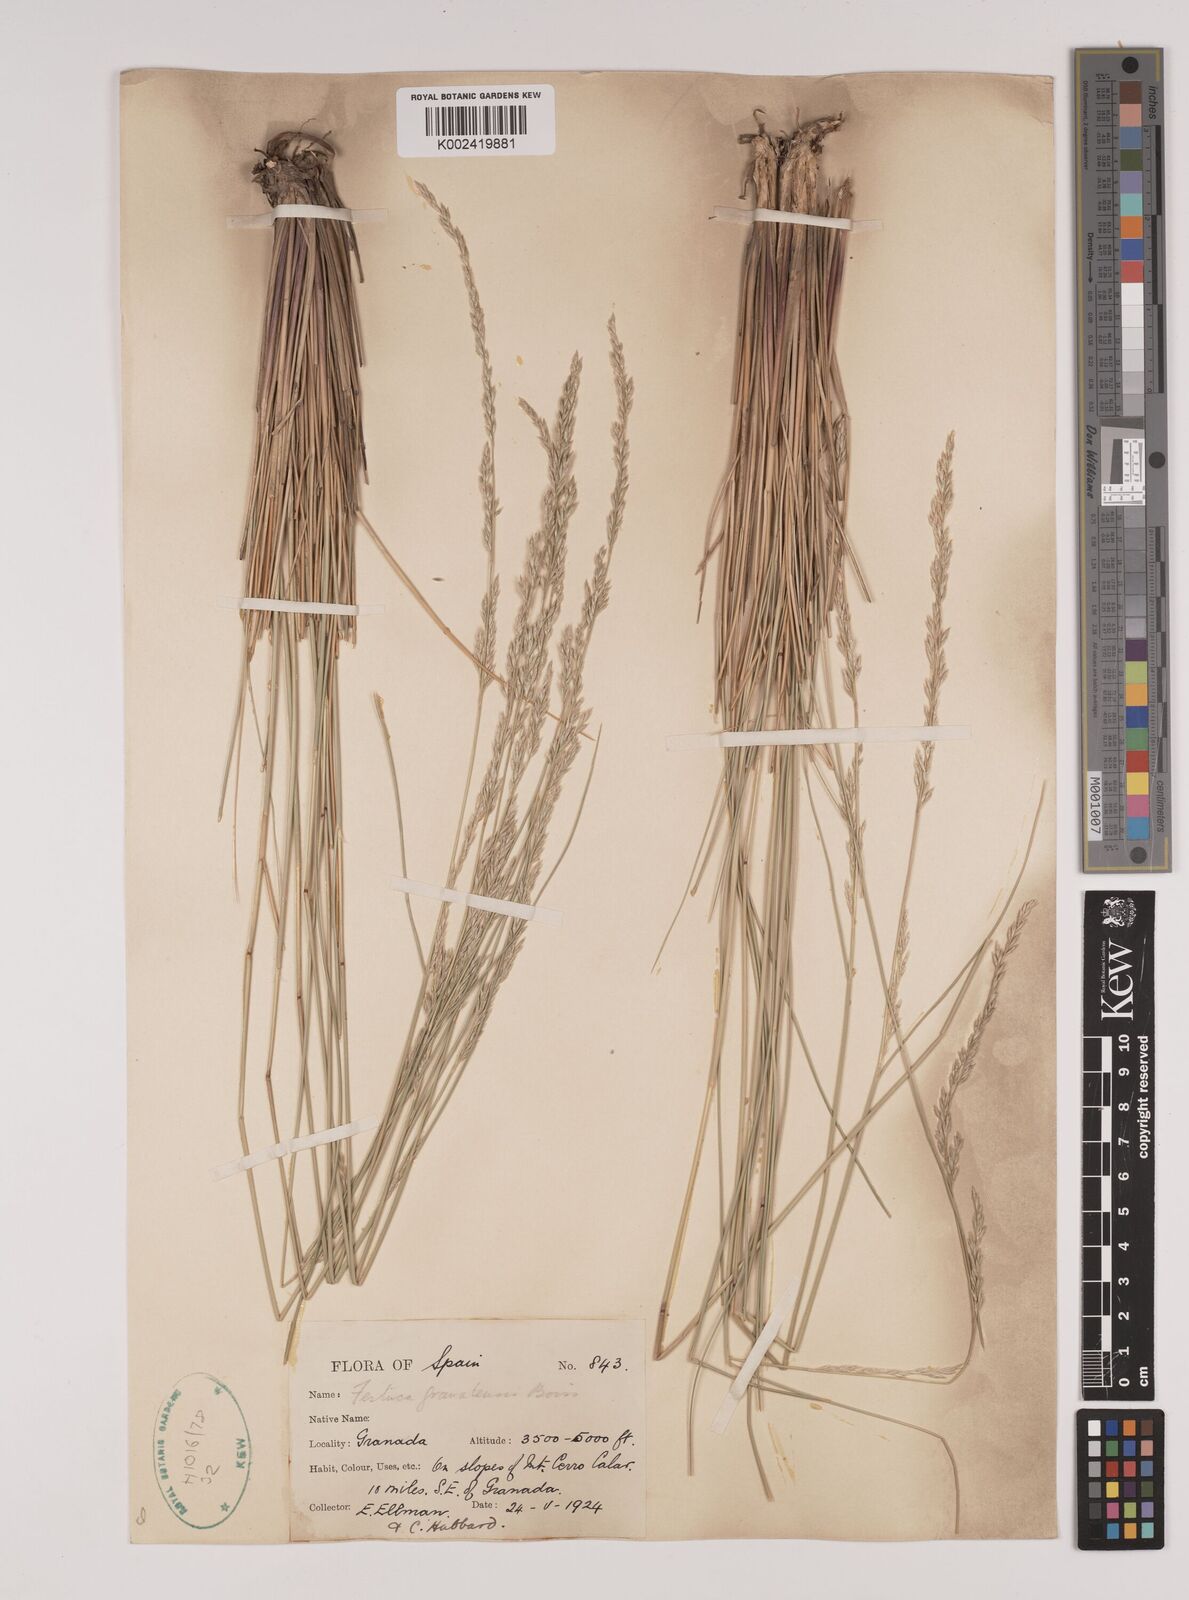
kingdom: Plantae
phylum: Tracheophyta
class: Liliopsida
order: Poales
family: Poaceae
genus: Festuca
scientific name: Festuca scariosa
